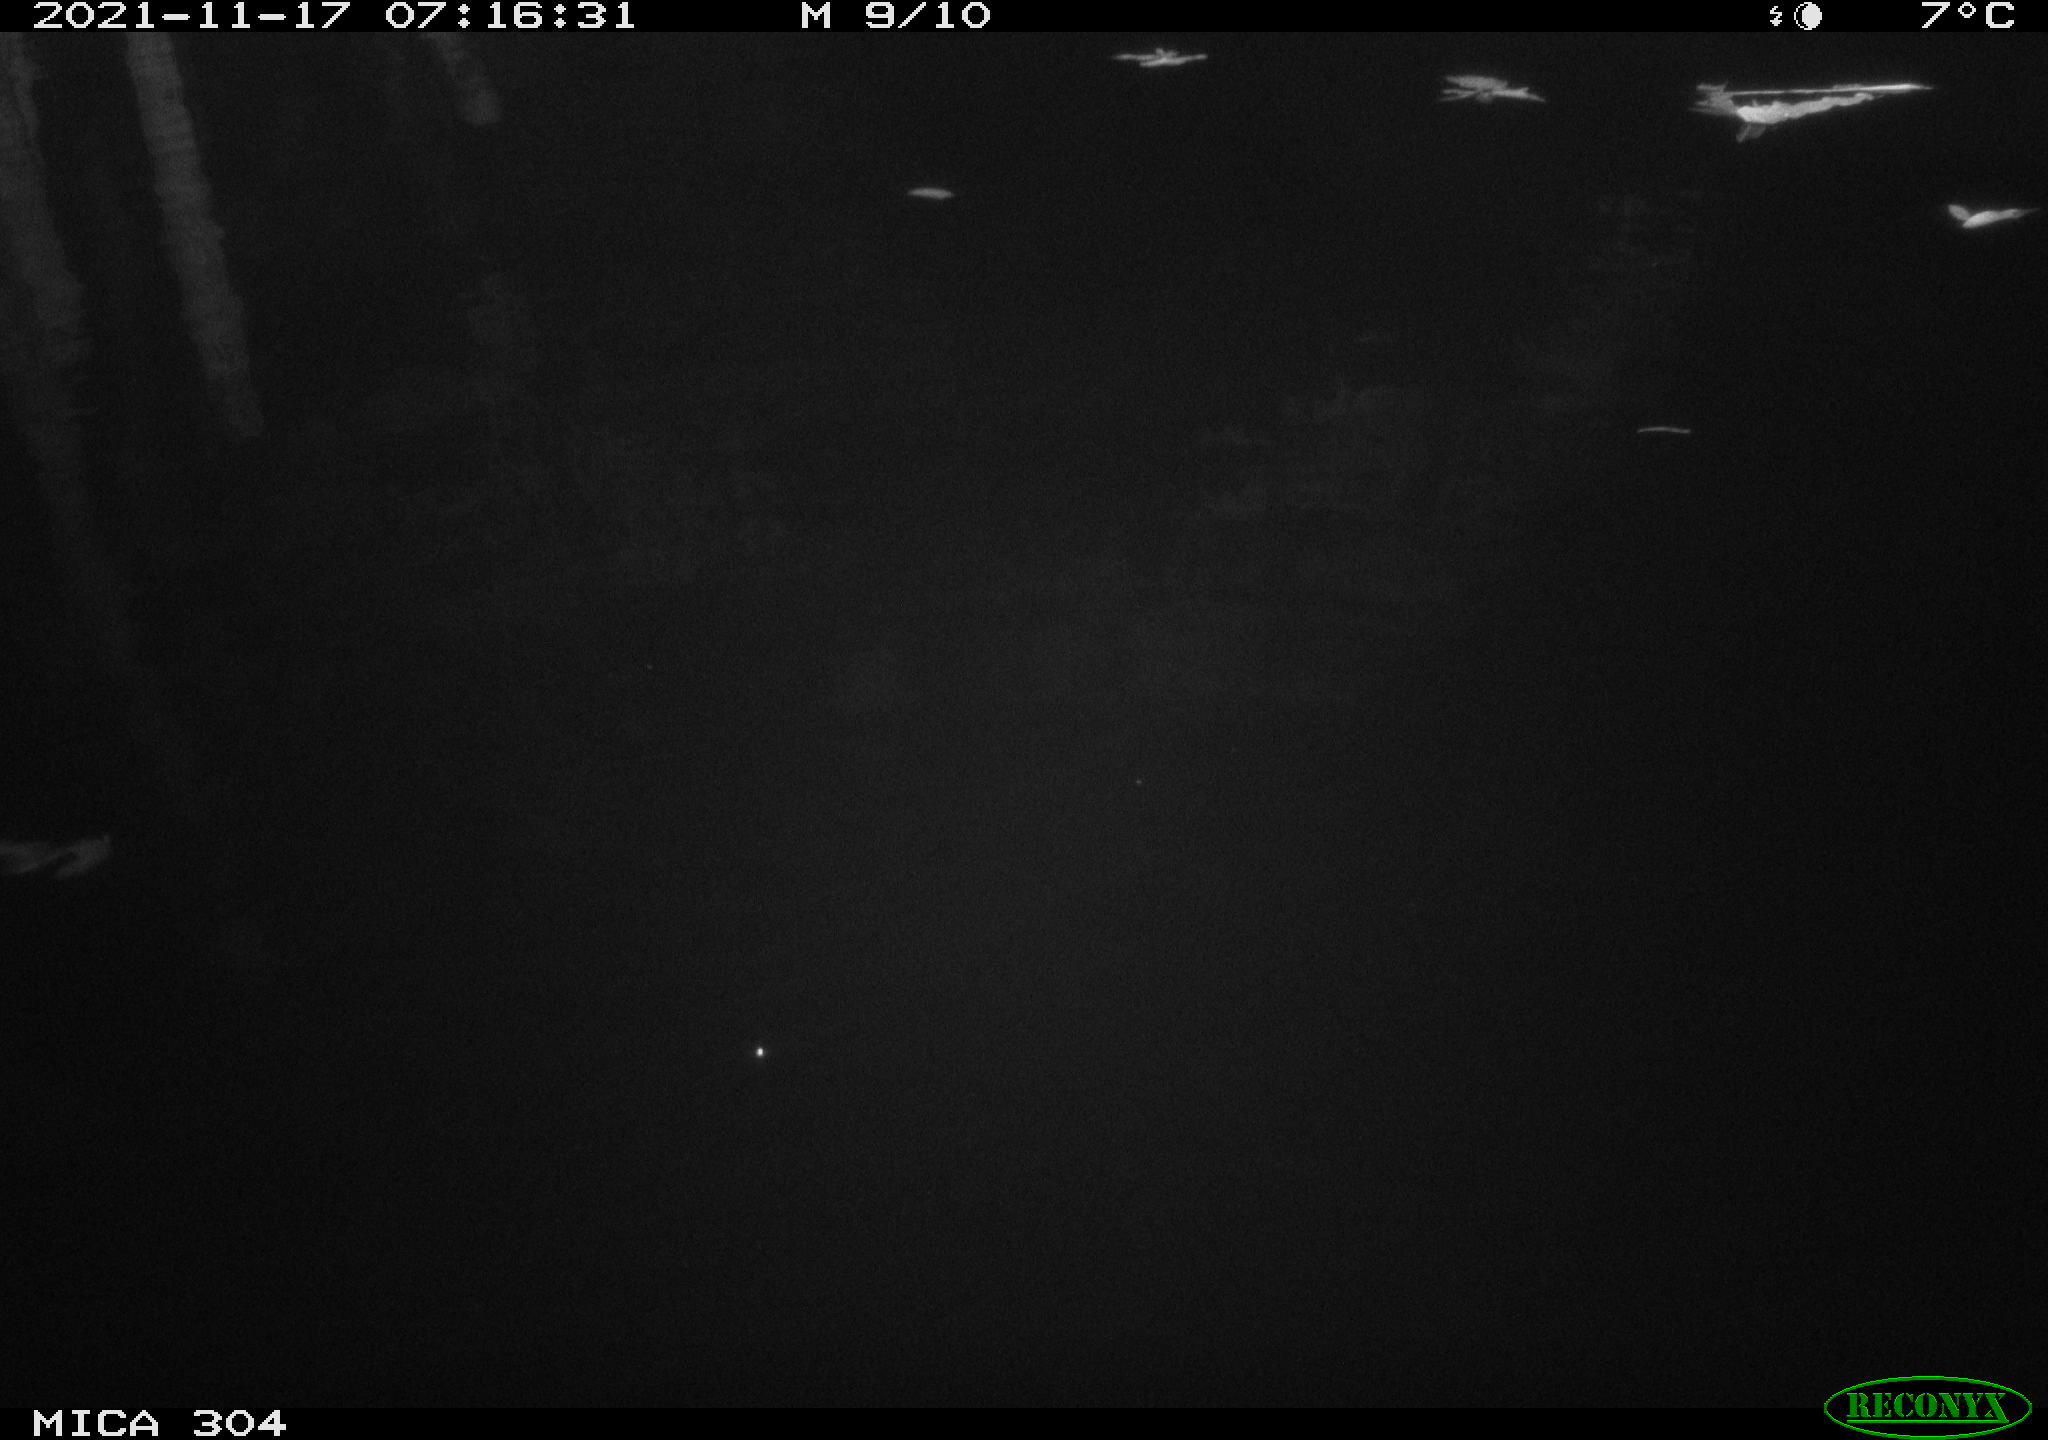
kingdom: Animalia
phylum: Chordata
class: Aves
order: Gruiformes
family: Rallidae
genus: Fulica
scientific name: Fulica atra
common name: Eurasian coot
